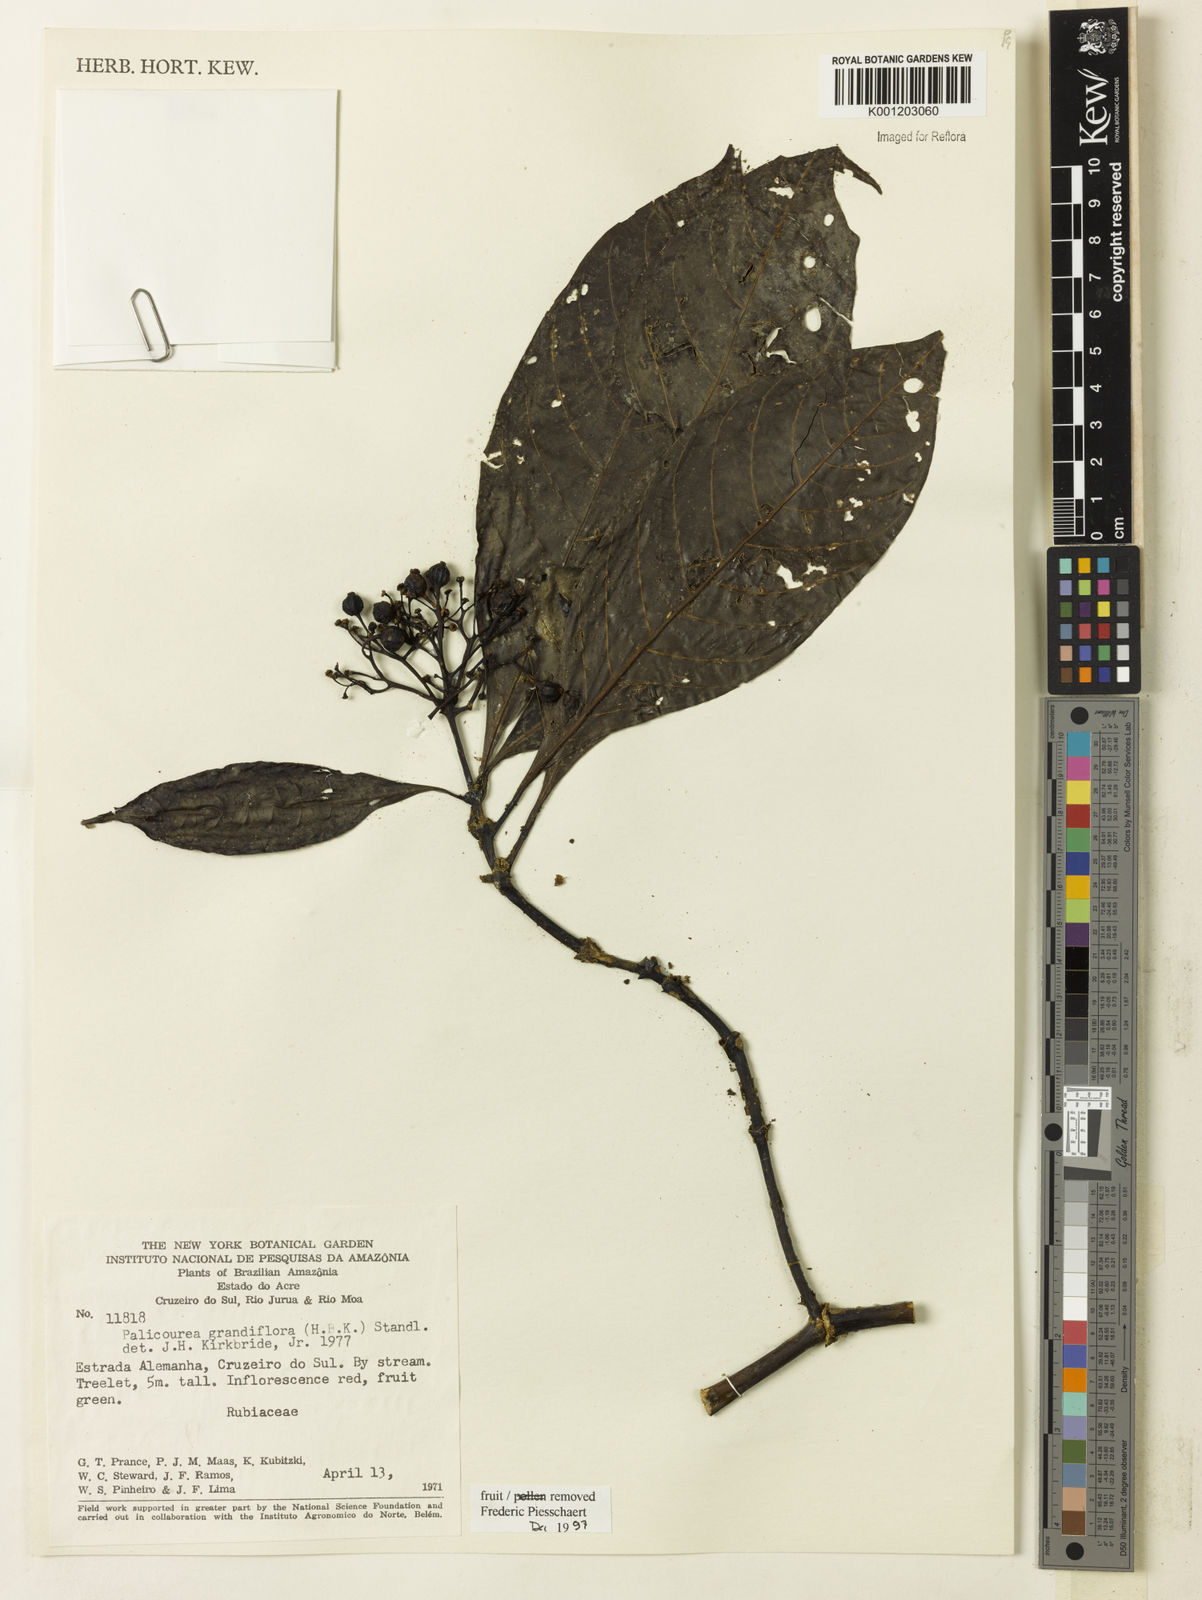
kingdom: Plantae
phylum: Tracheophyta
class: Magnoliopsida
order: Gentianales
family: Rubiaceae
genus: Palicourea
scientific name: Palicourea grandiflora
